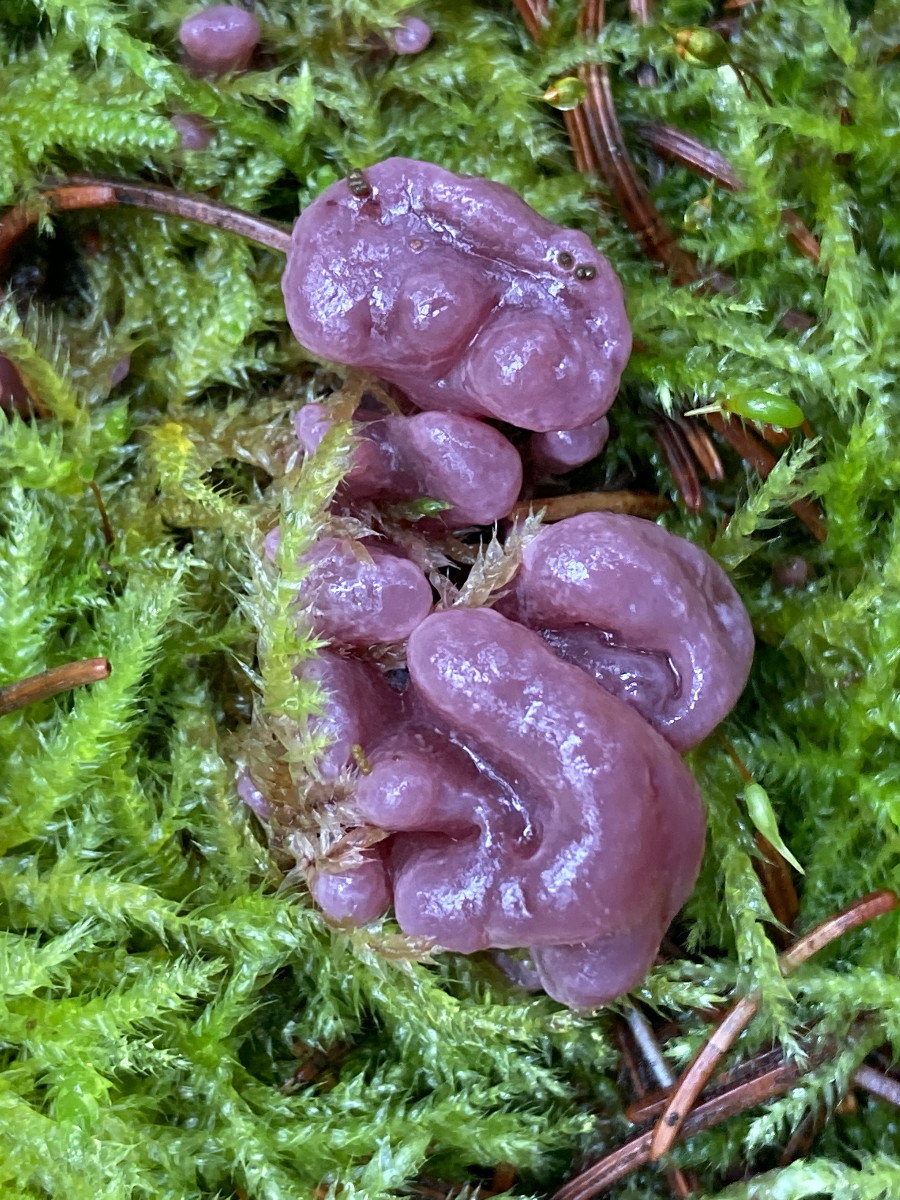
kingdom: Fungi
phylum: Ascomycota
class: Leotiomycetes
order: Helotiales
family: Gelatinodiscaceae
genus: Ascocoryne
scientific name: Ascocoryne sarcoides
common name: rødlilla sejskive
